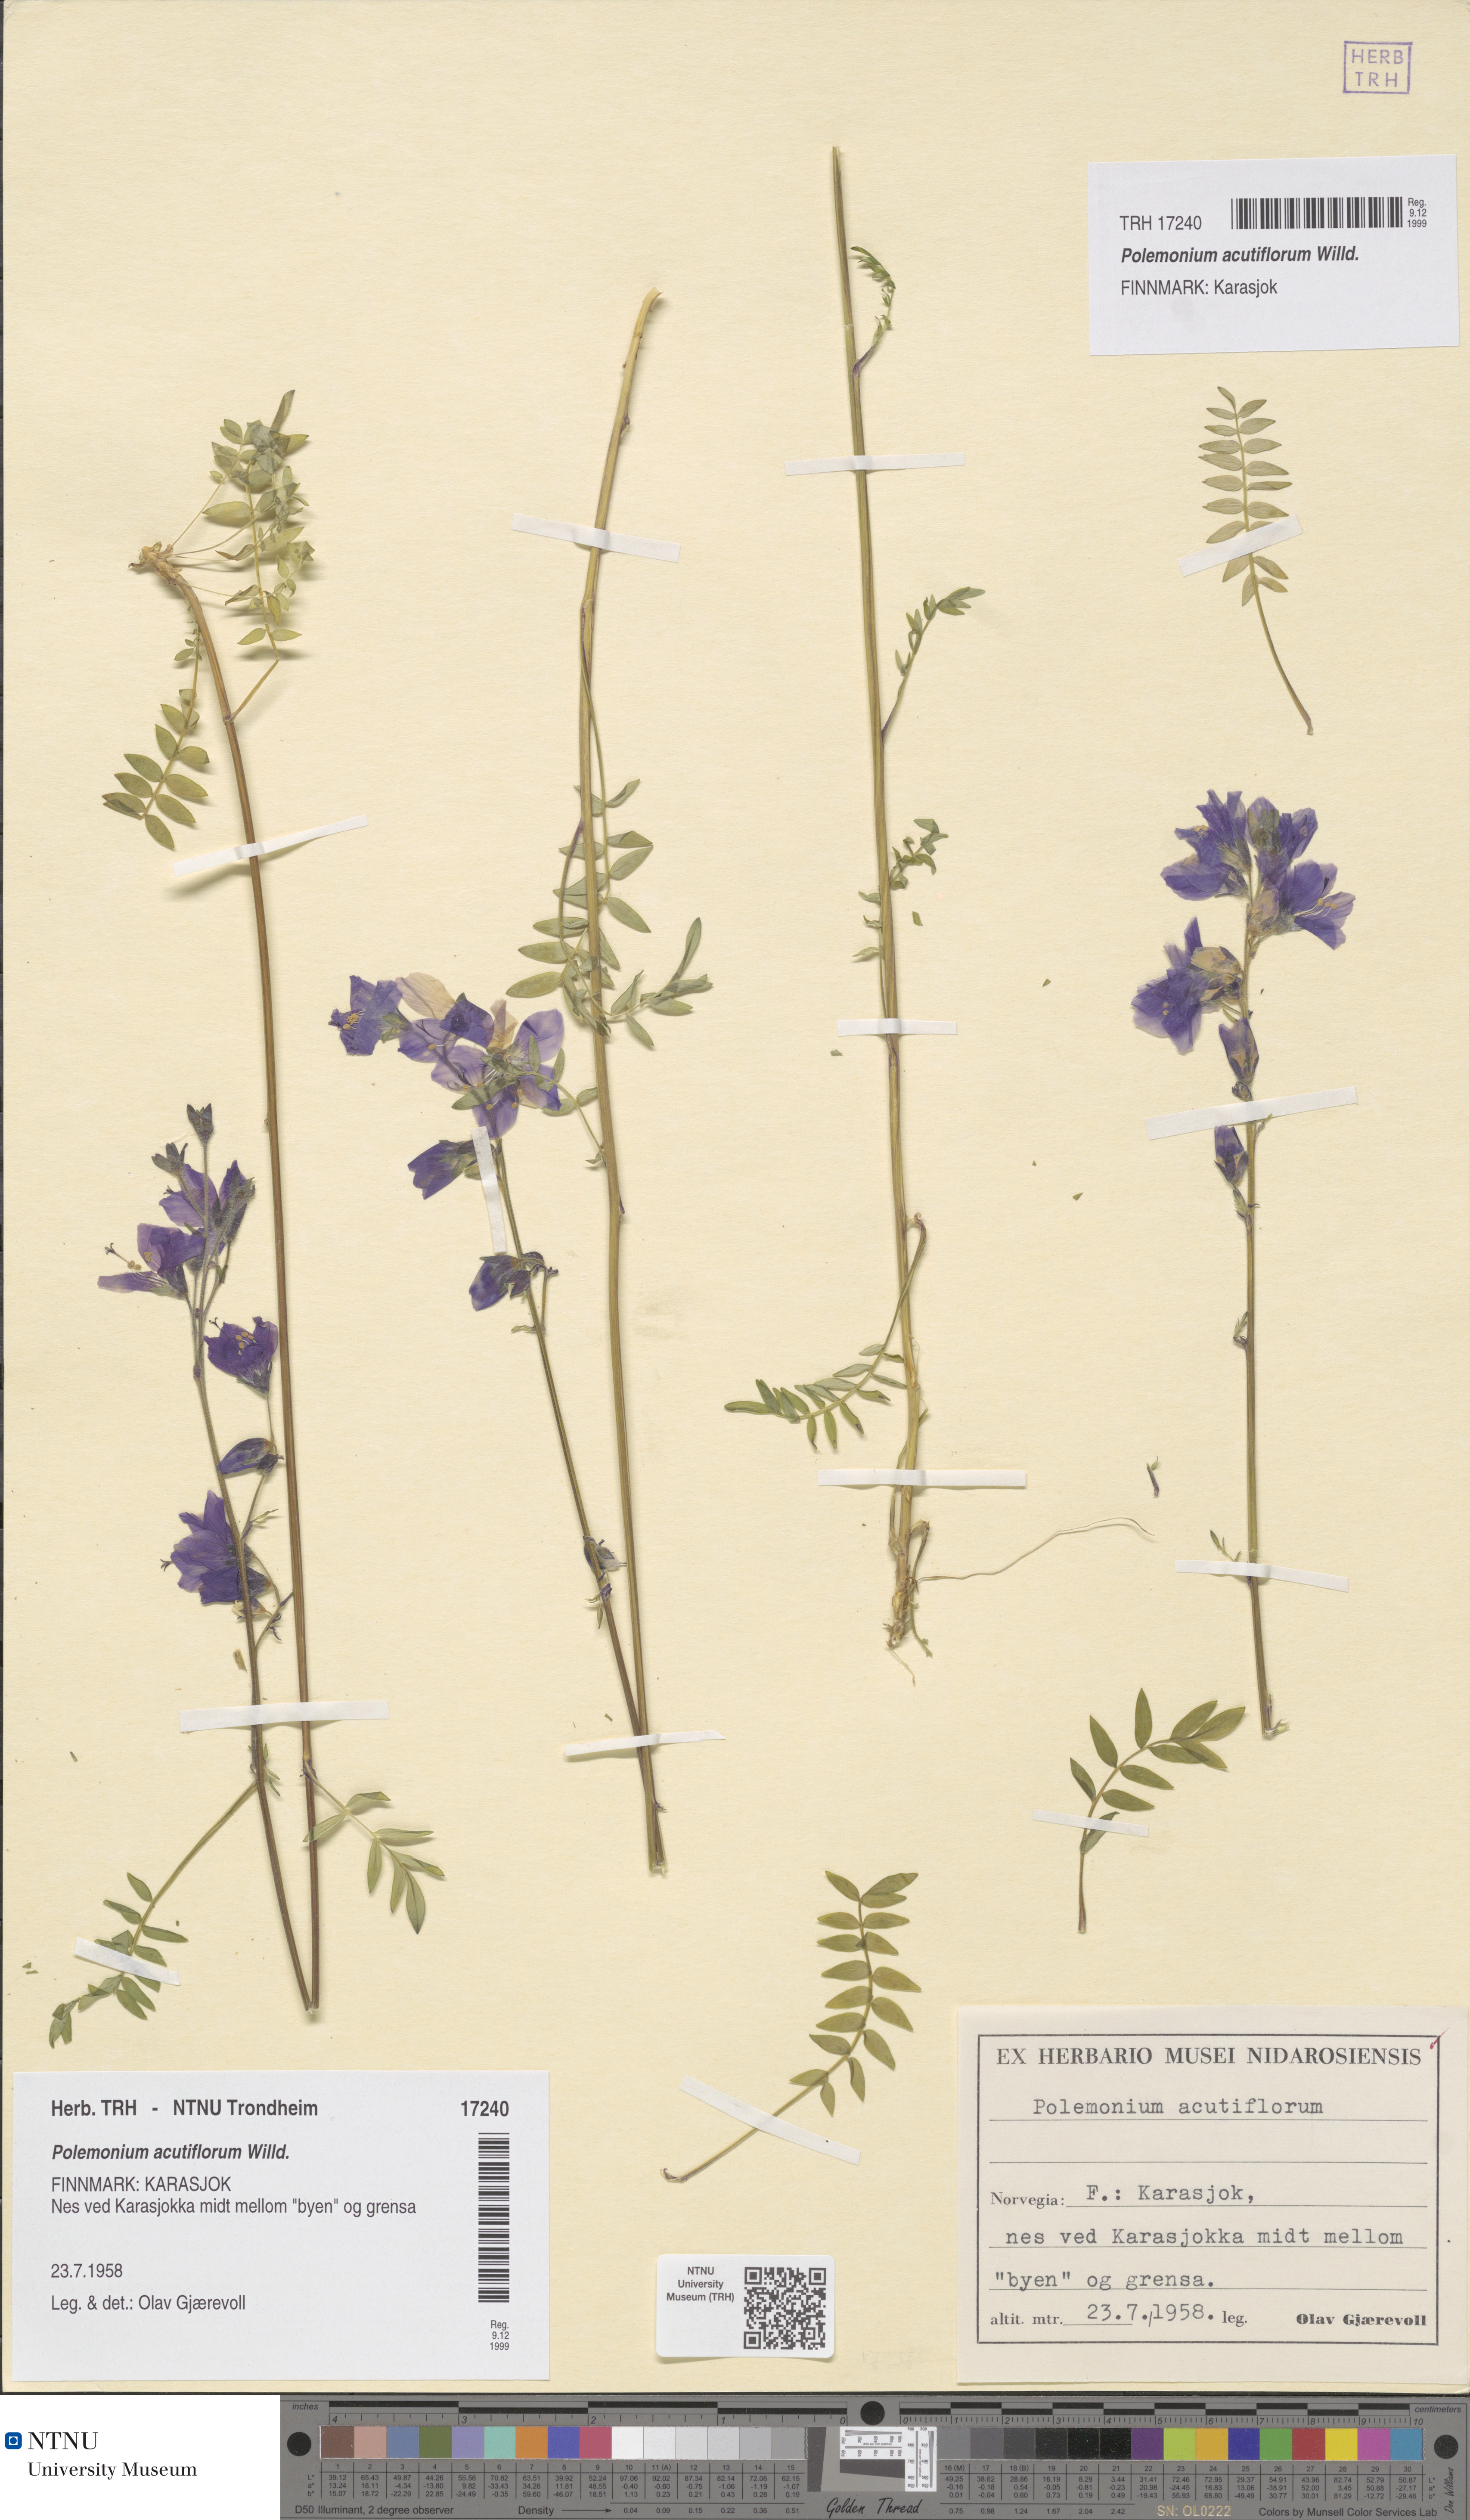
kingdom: Plantae
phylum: Tracheophyta
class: Magnoliopsida
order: Ericales
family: Polemoniaceae
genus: Polemonium
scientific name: Polemonium villosum
